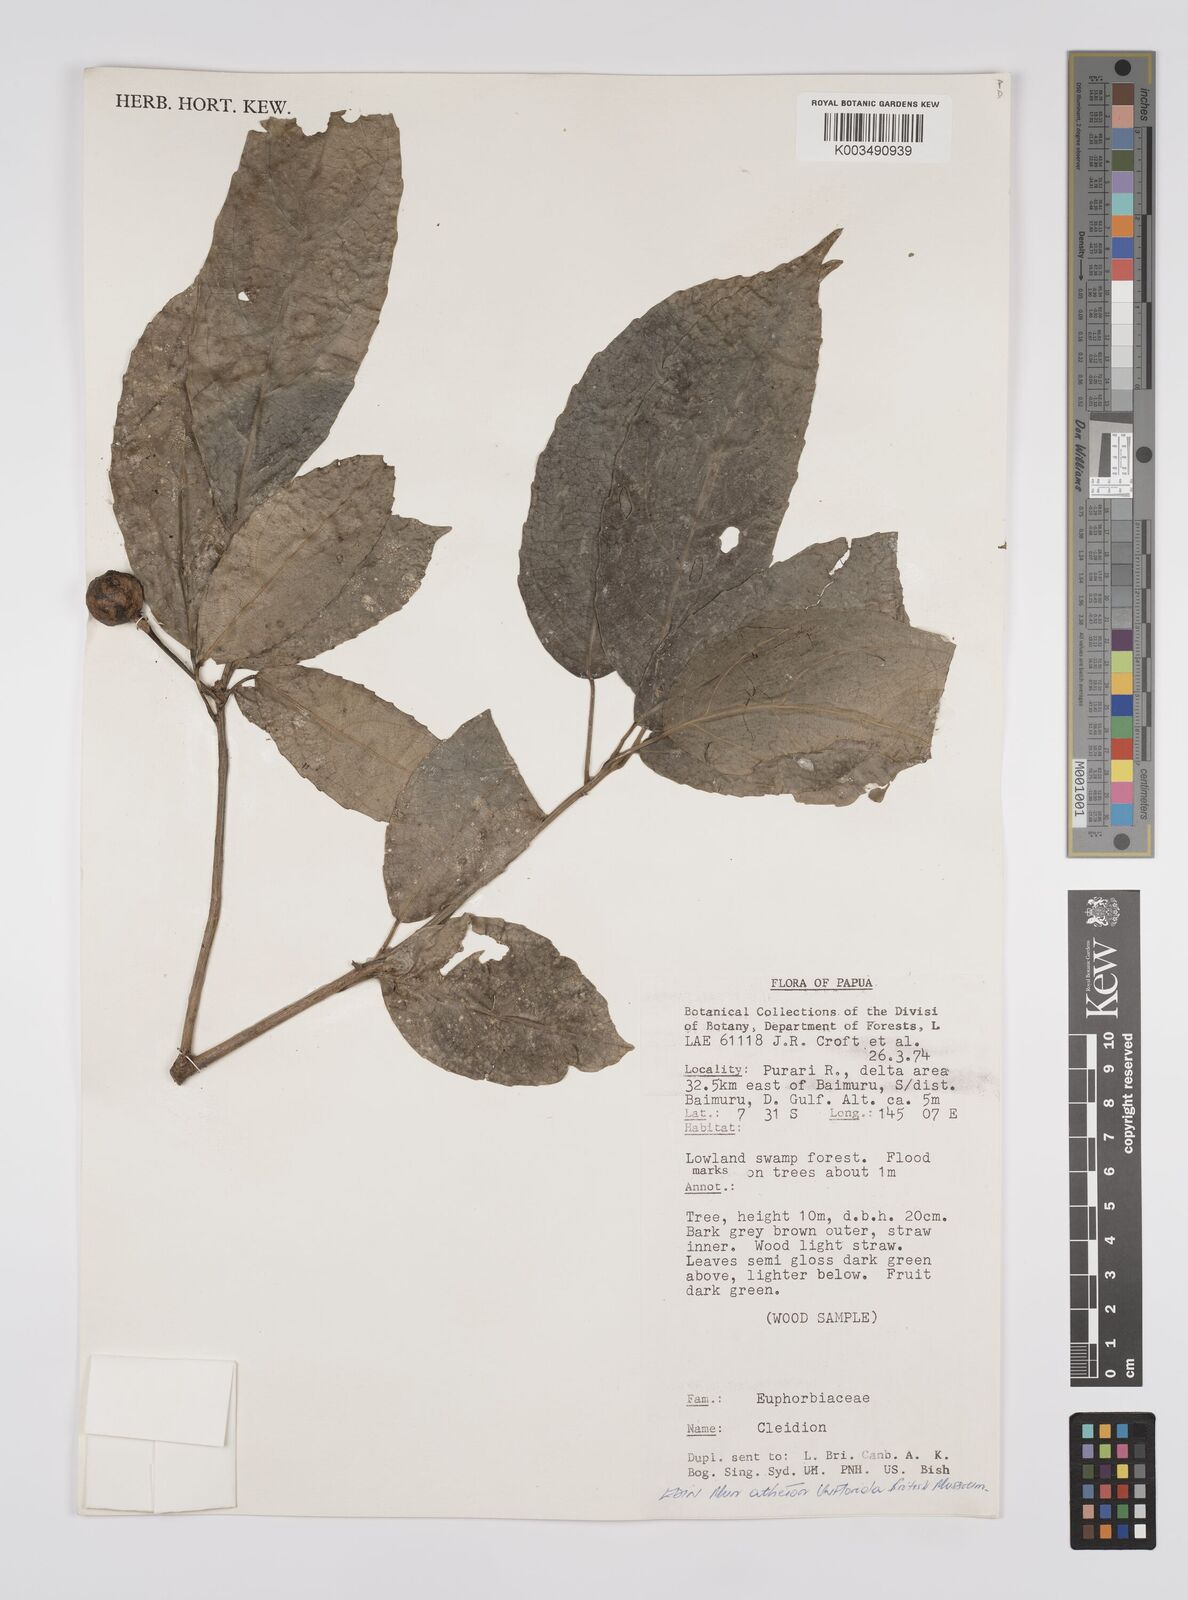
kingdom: Plantae
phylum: Tracheophyta
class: Magnoliopsida
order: Malpighiales
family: Euphorbiaceae
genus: Cleidion
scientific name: Cleidion javanicum
